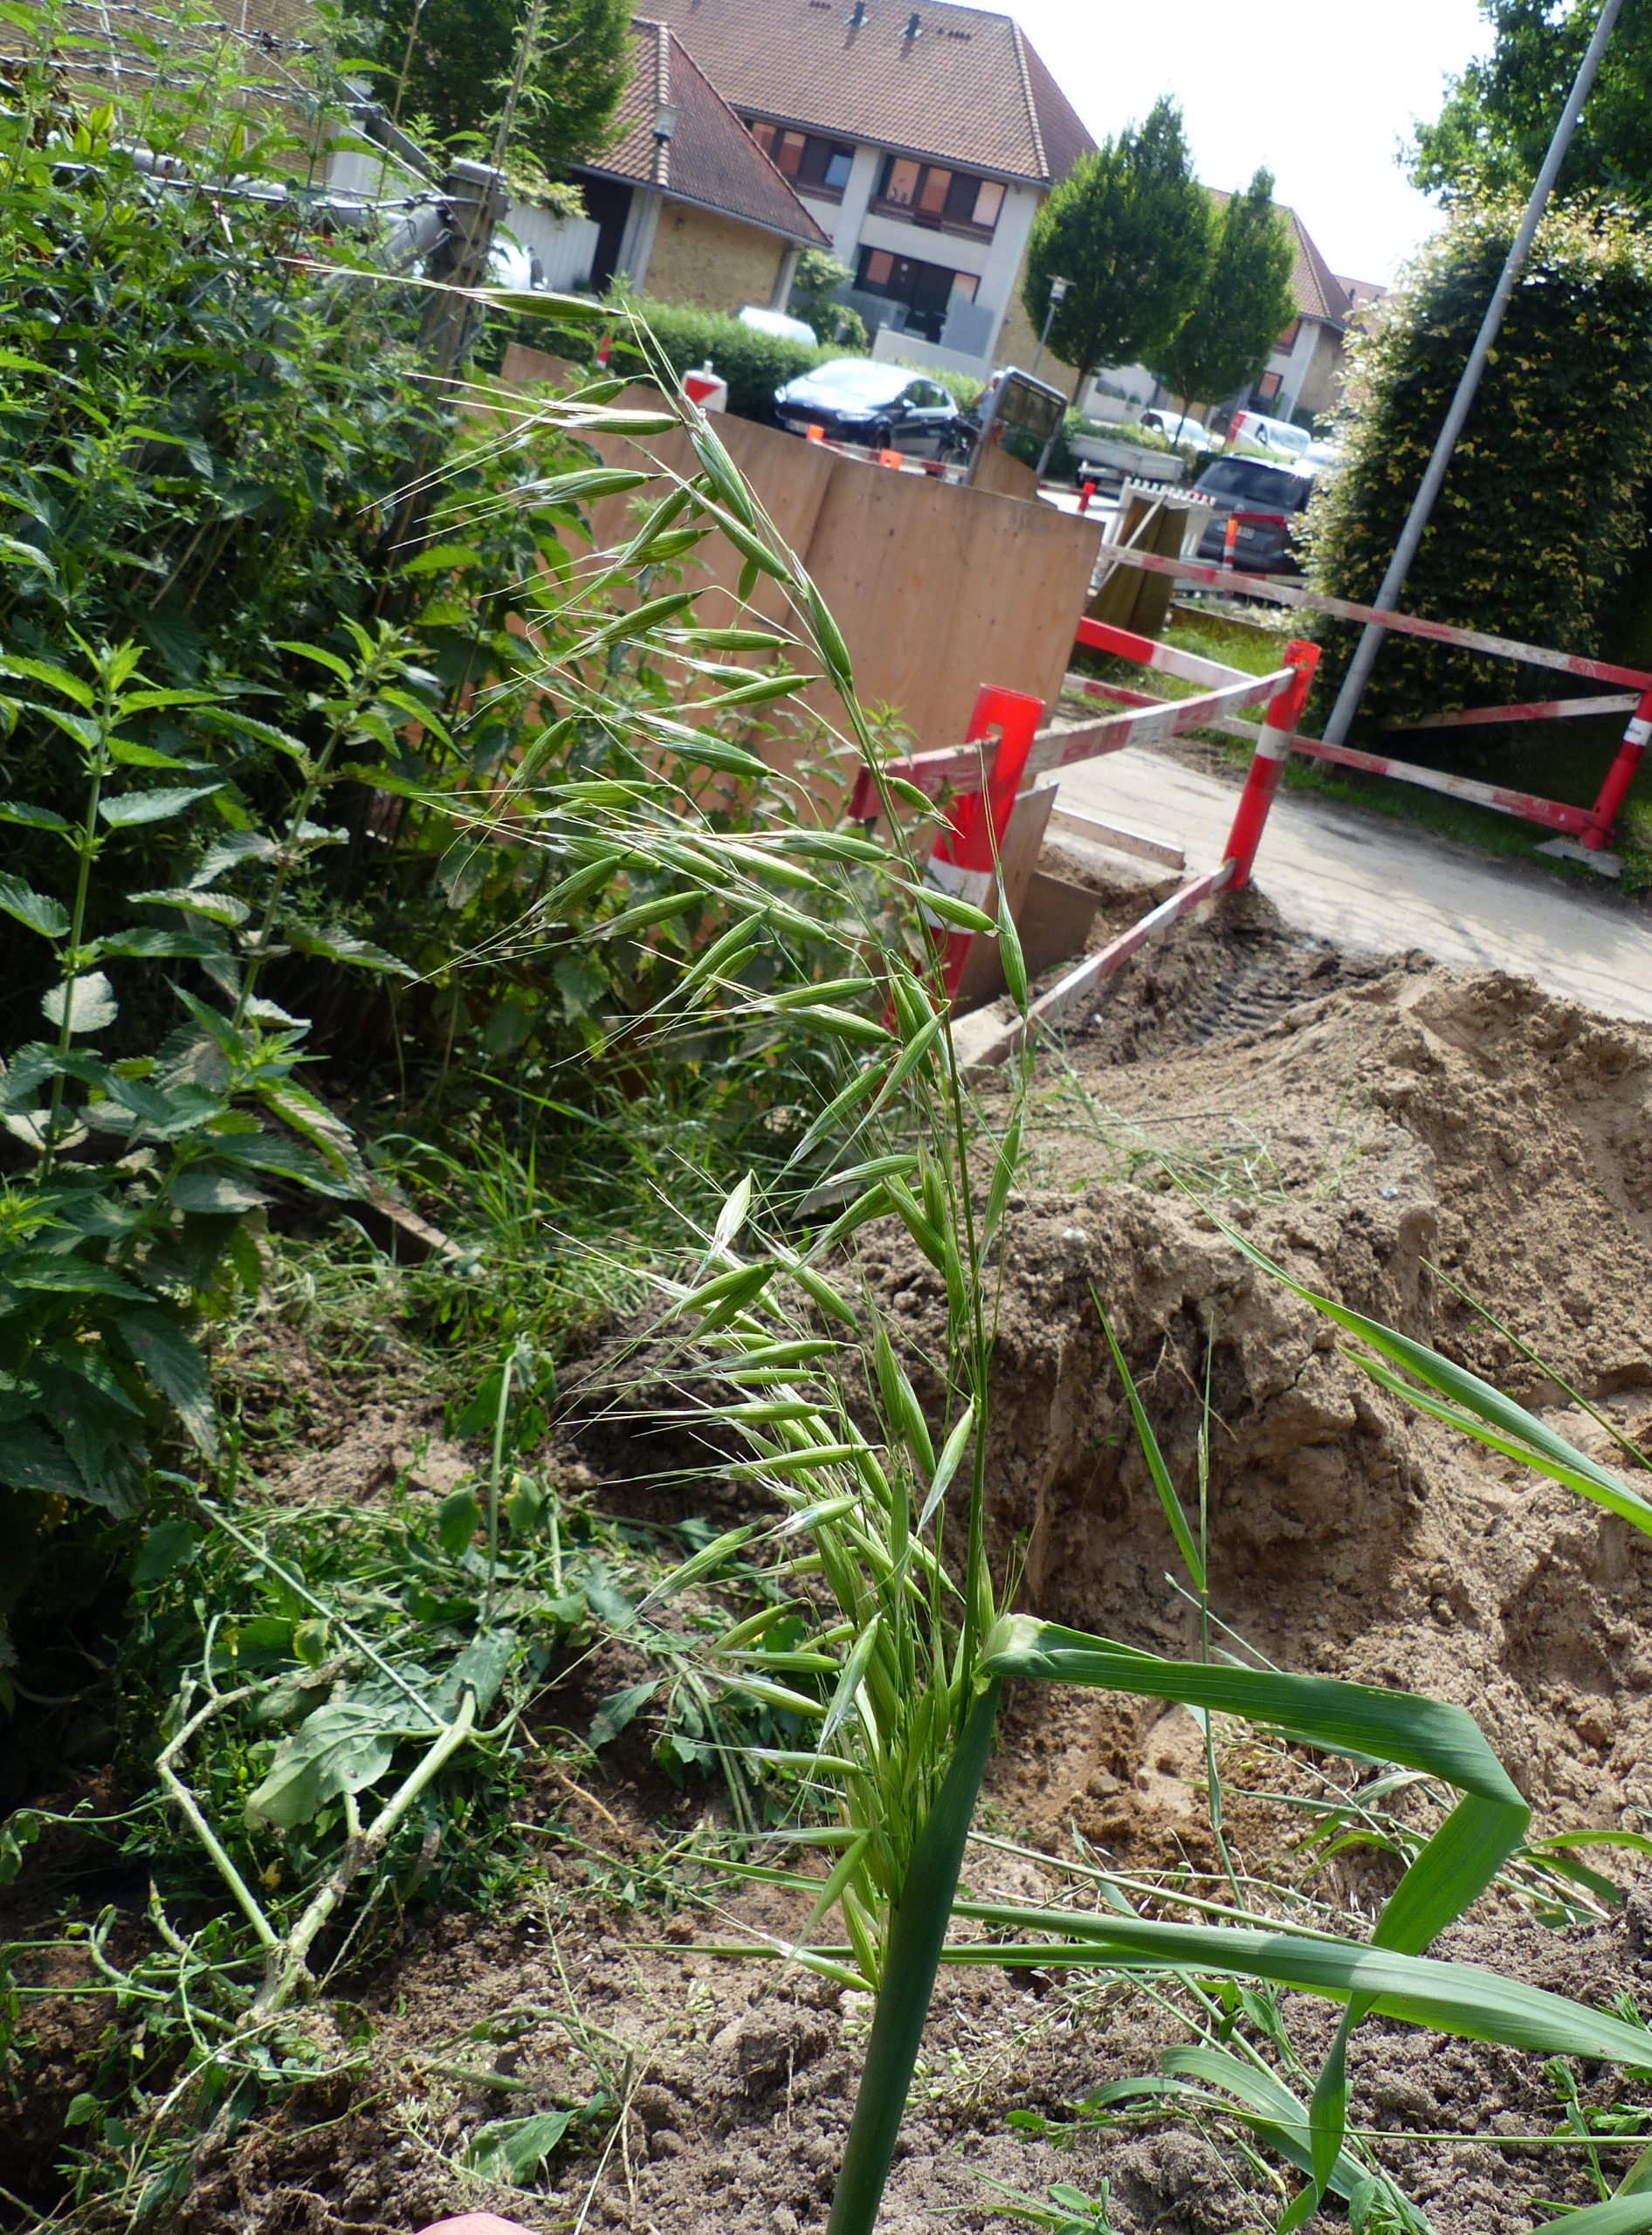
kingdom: Plantae
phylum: Tracheophyta
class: Liliopsida
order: Poales
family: Poaceae
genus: Avena
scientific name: Avena fatua
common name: Flyve-havre
